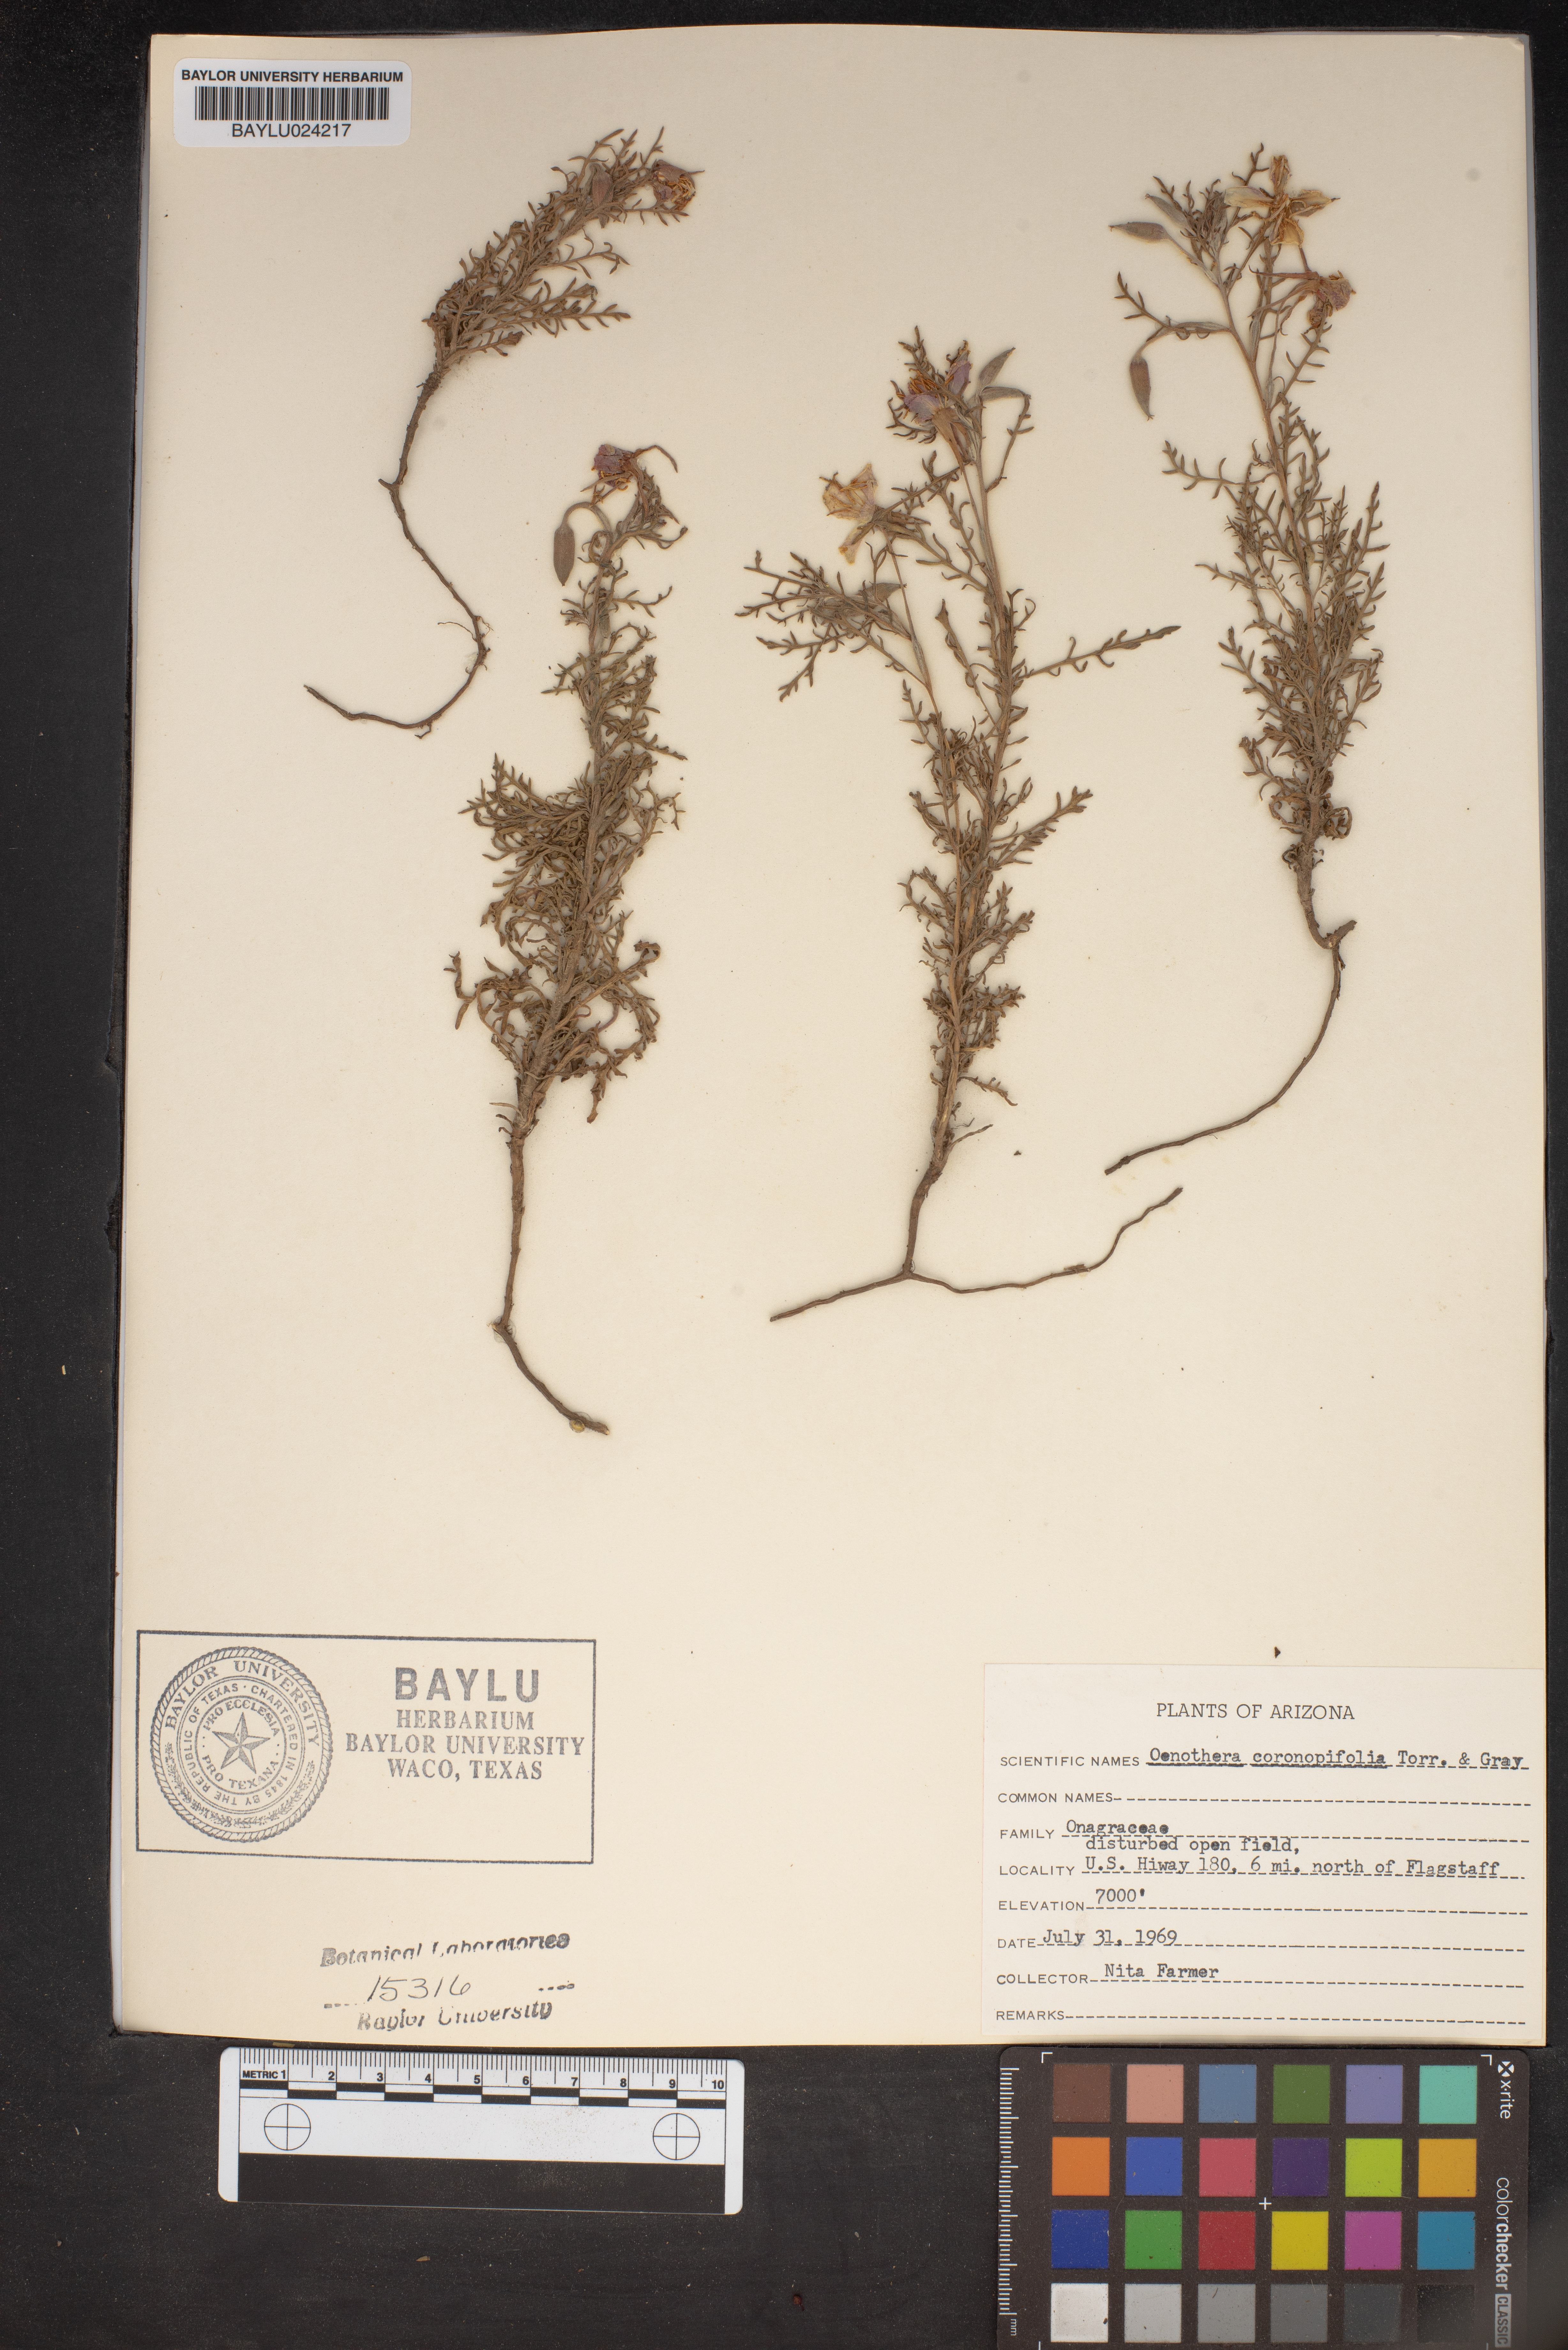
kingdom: Plantae
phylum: Tracheophyta
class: Magnoliopsida
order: Myrtales
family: Onagraceae
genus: Oenothera
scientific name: Oenothera coronopifolia
